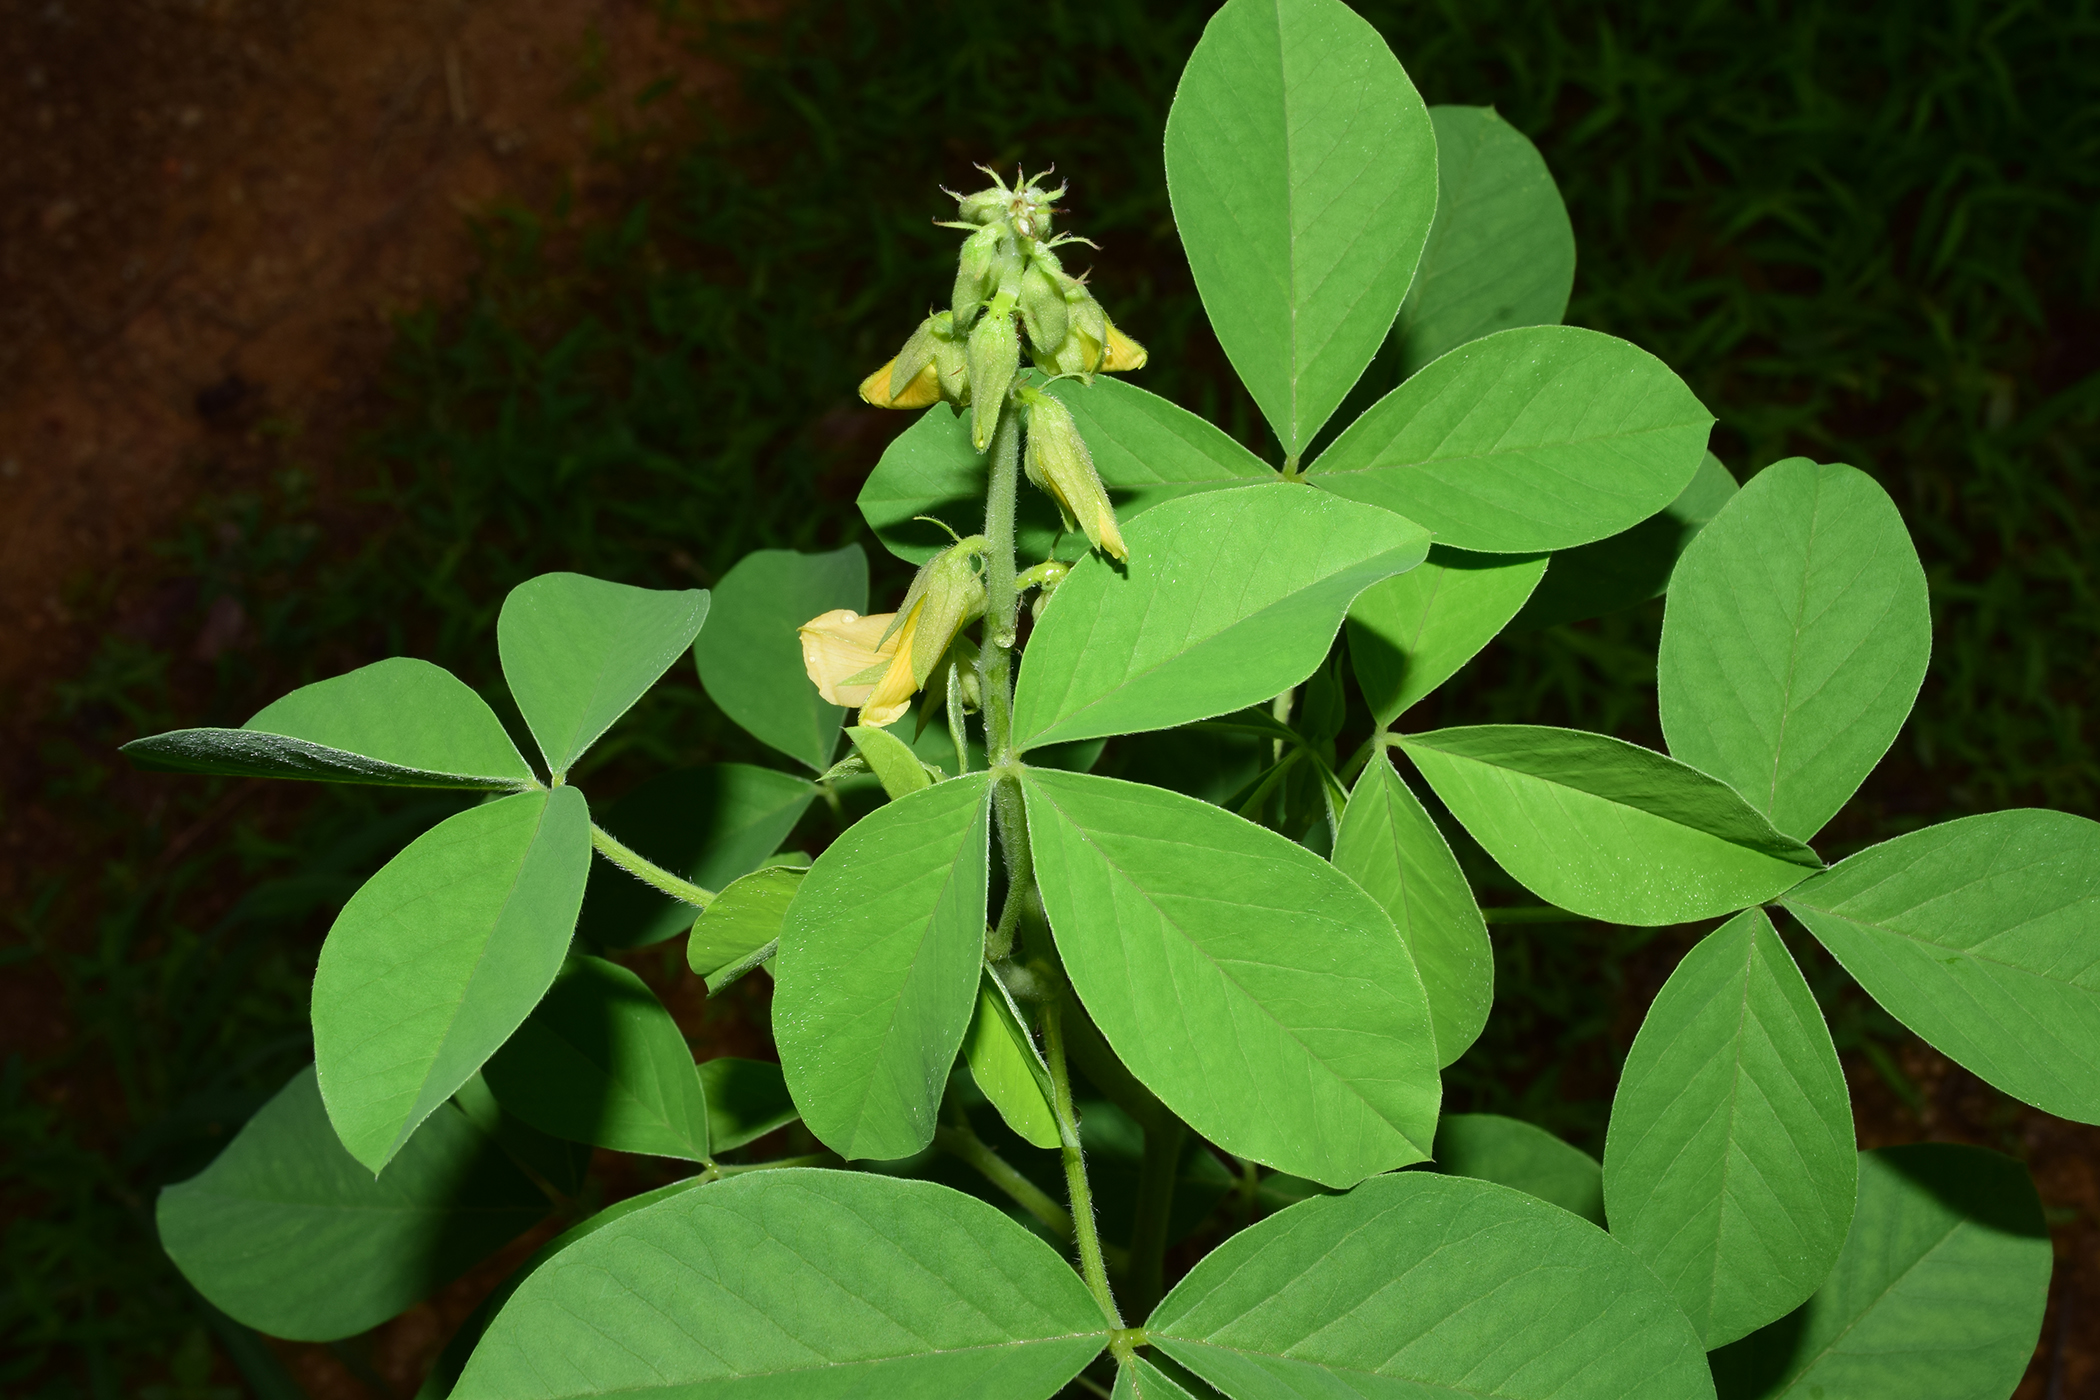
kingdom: Plantae
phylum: Tracheophyta
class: Magnoliopsida
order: Fabales
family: Fabaceae
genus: Crotalaria
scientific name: Crotalaria incana
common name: Shakeshake
